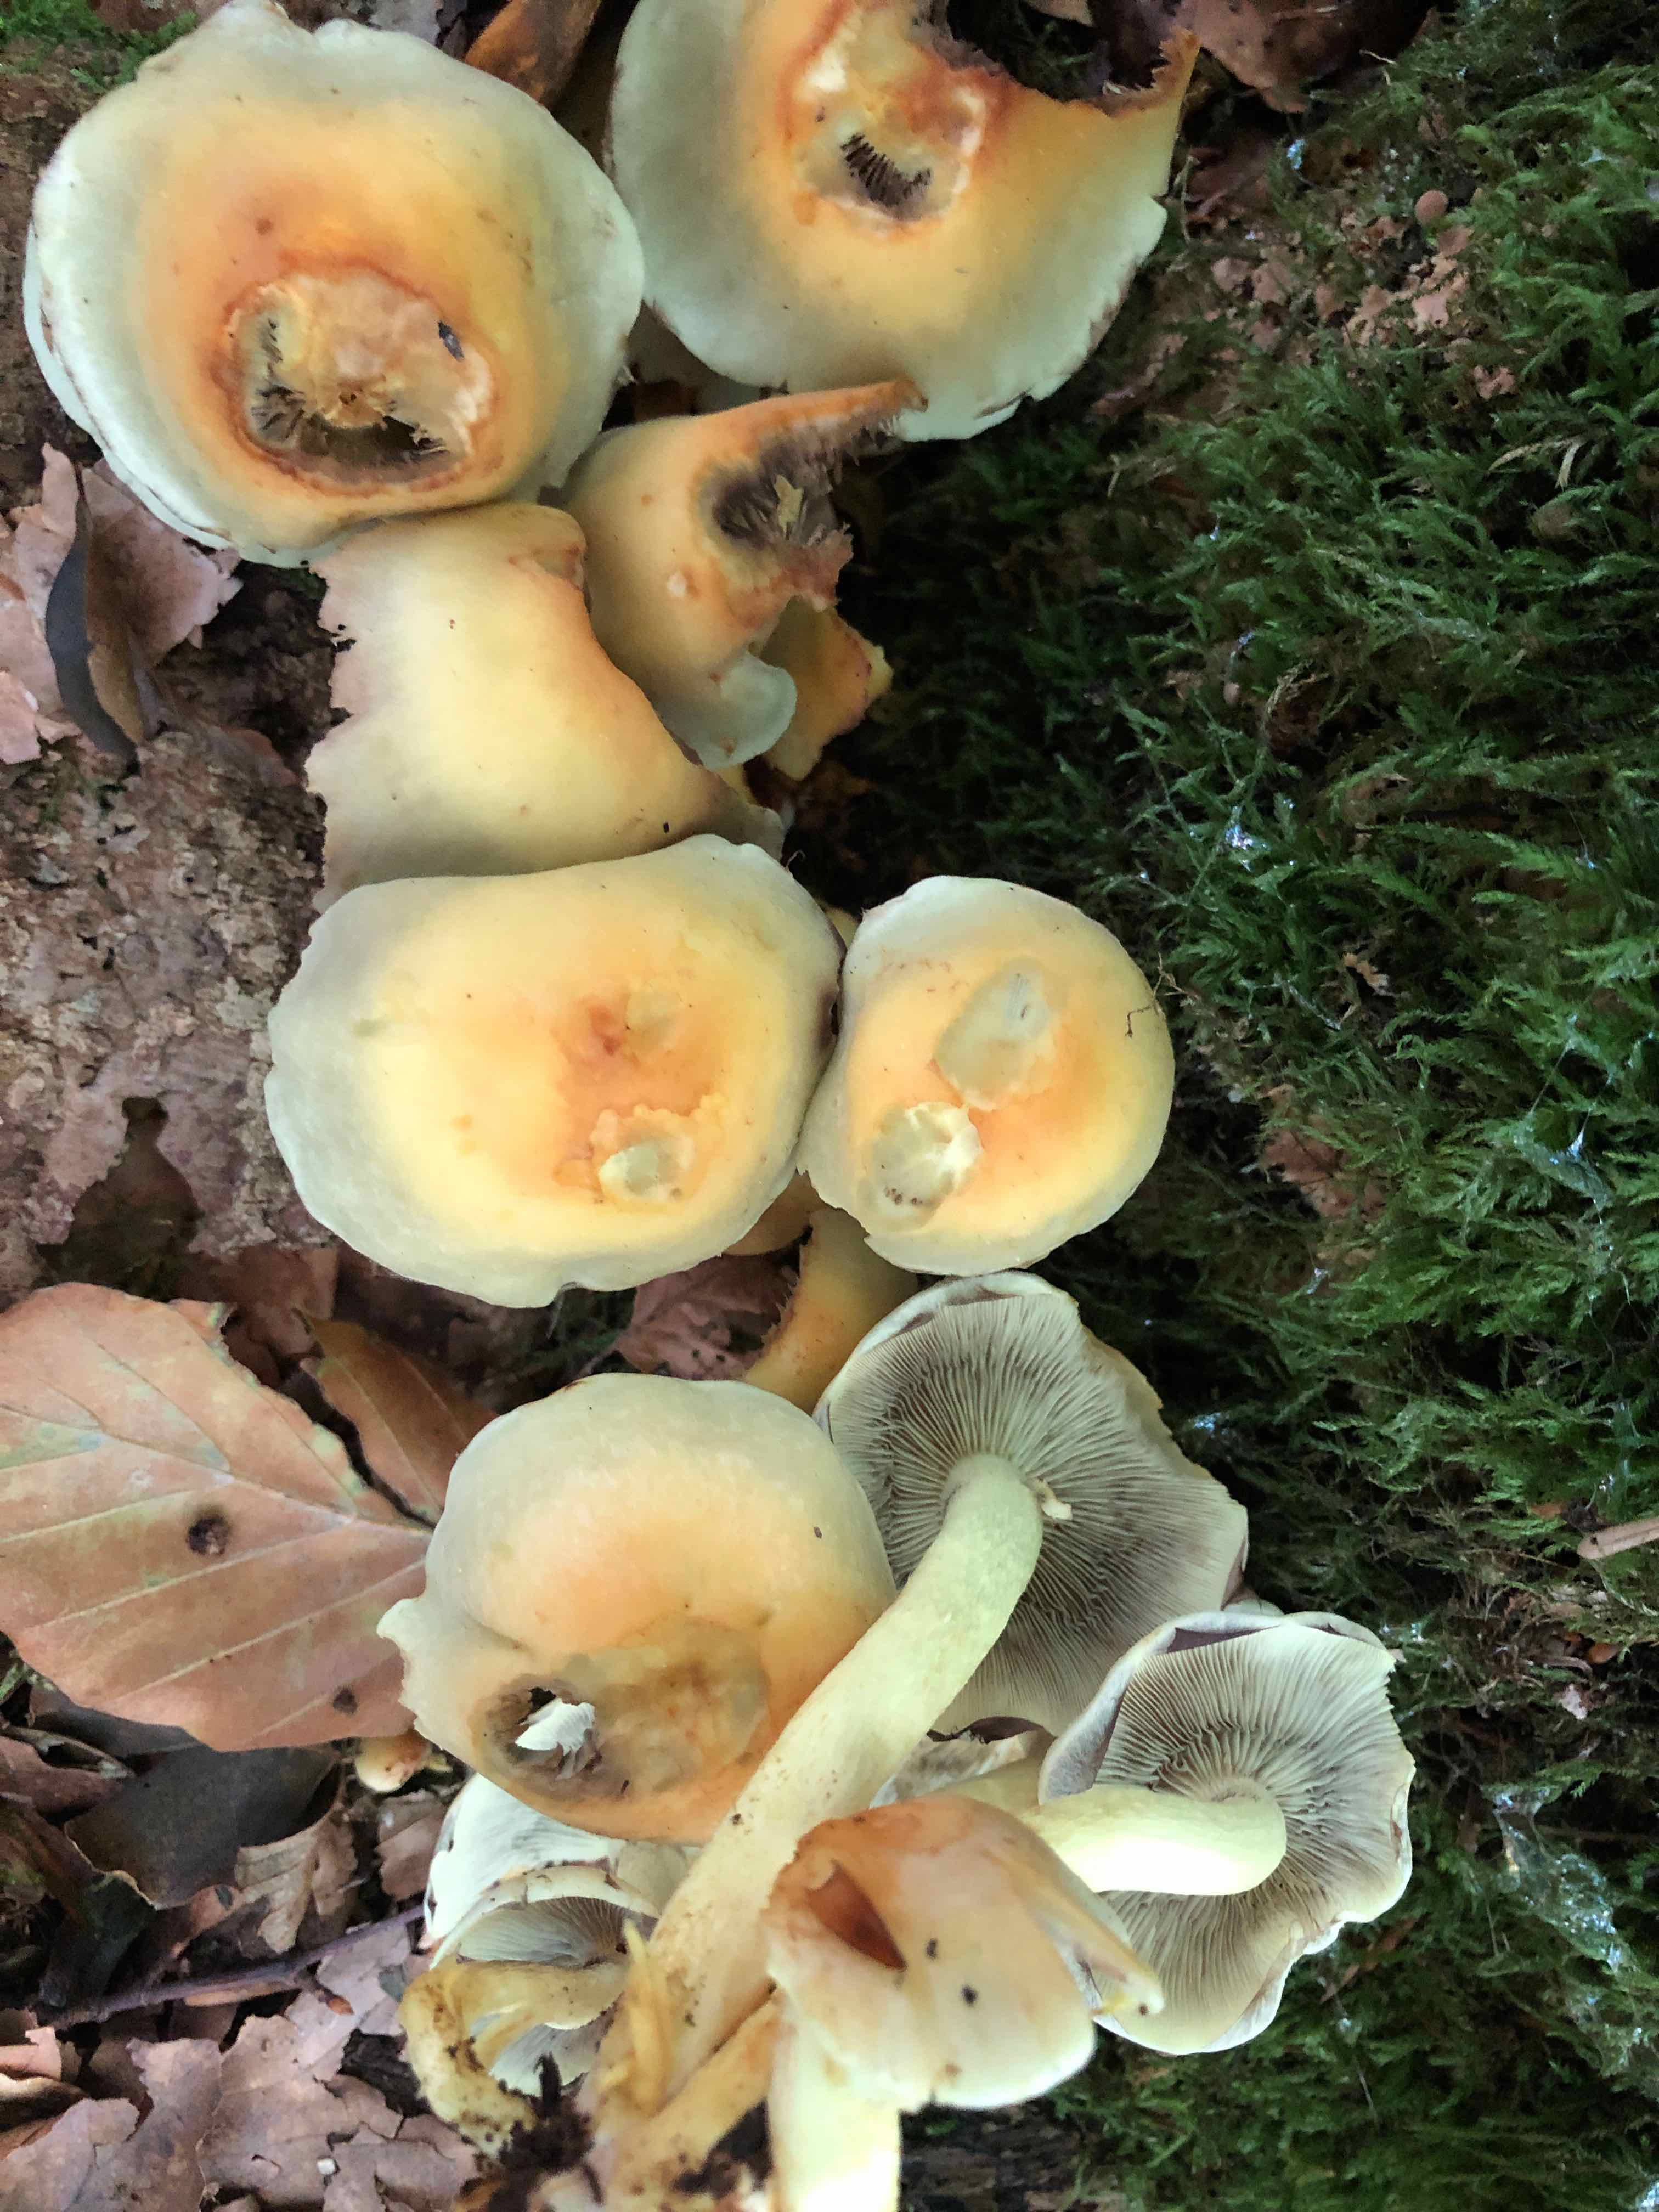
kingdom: Fungi
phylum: Basidiomycota
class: Agaricomycetes
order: Agaricales
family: Strophariaceae
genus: Hypholoma
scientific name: Hypholoma fasciculare
